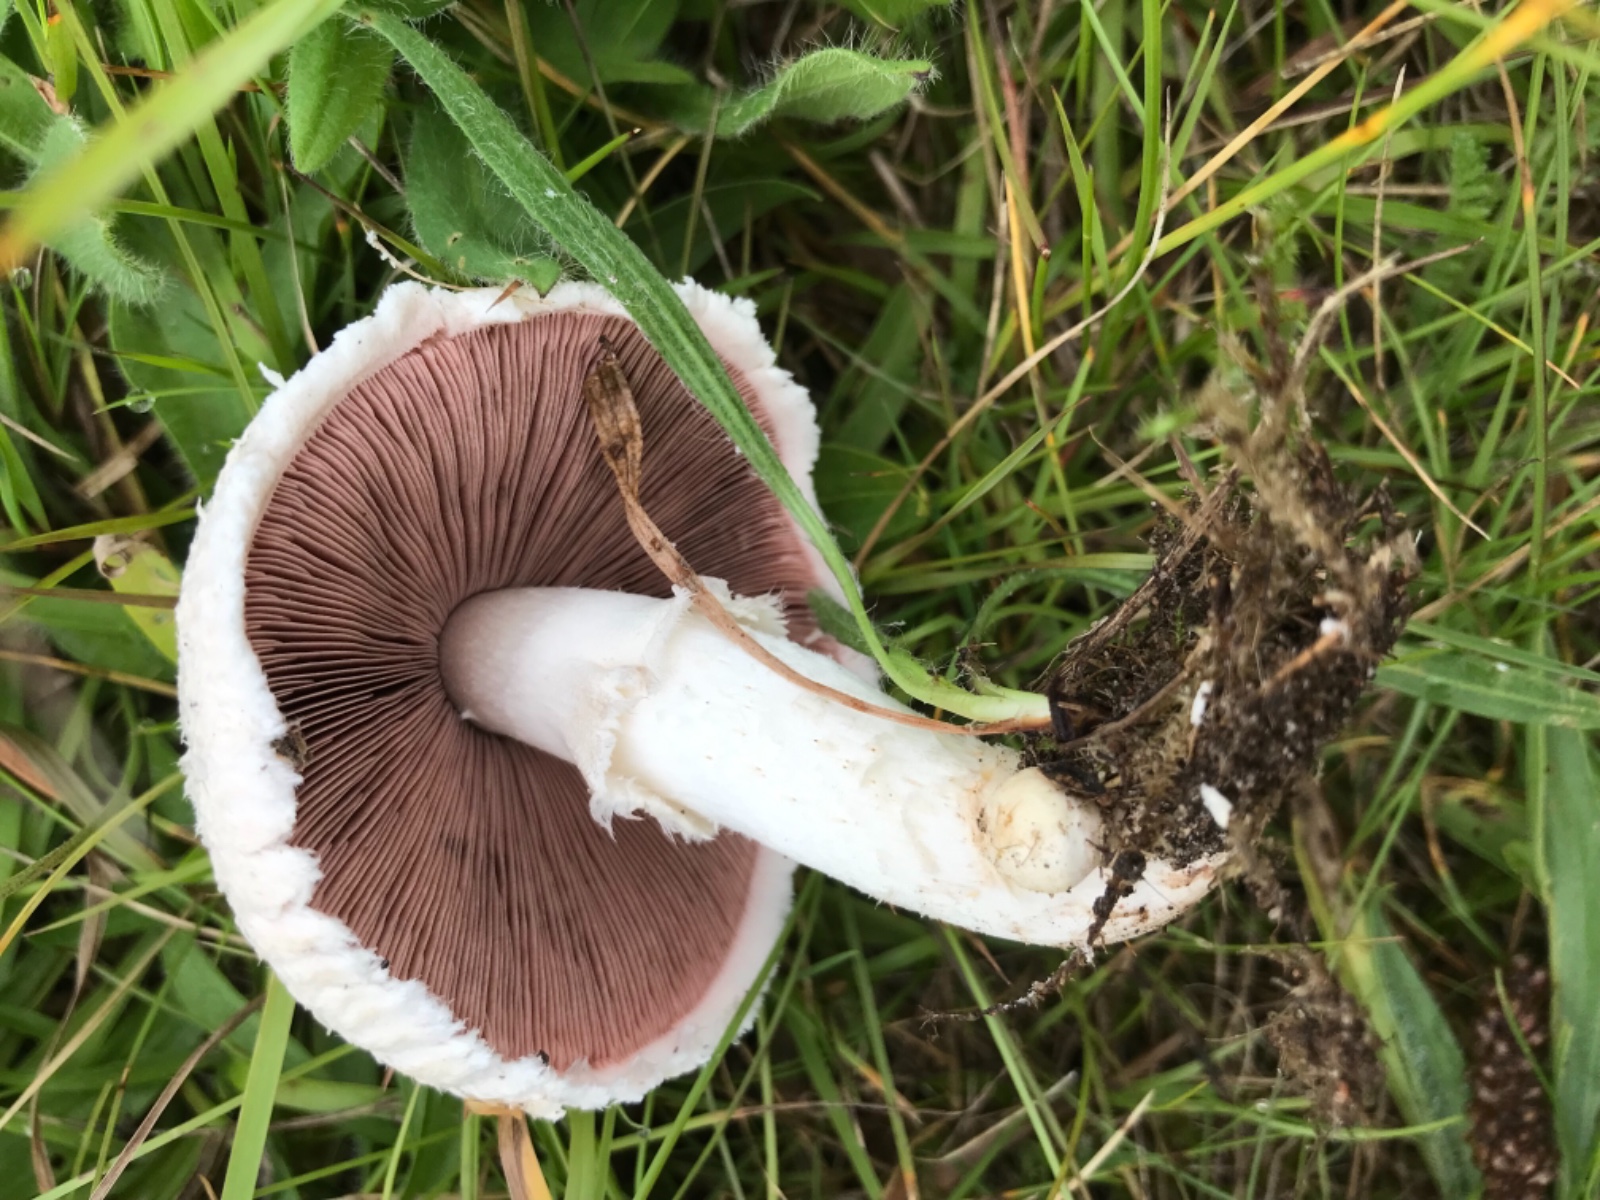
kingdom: Fungi
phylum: Basidiomycota
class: Agaricomycetes
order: Agaricales
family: Agaricaceae
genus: Agaricus
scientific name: Agaricus campestris
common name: mark-champignon
